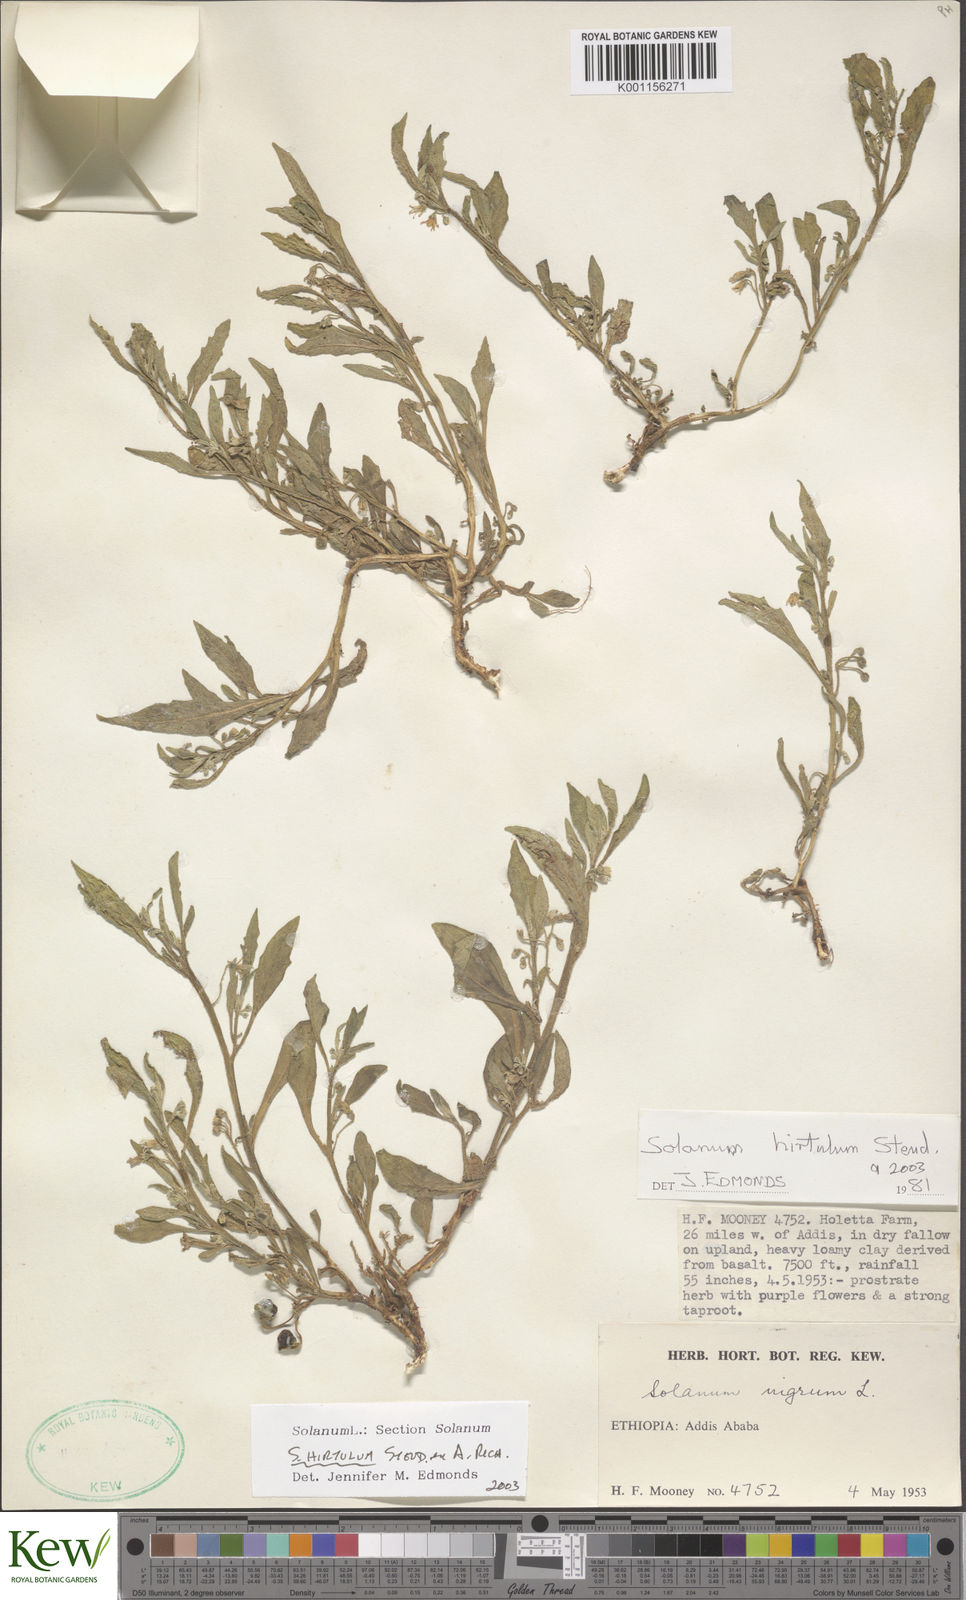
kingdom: Plantae
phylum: Tracheophyta
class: Magnoliopsida
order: Solanales
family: Solanaceae
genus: Solanum
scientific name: Solanum hirtulum
